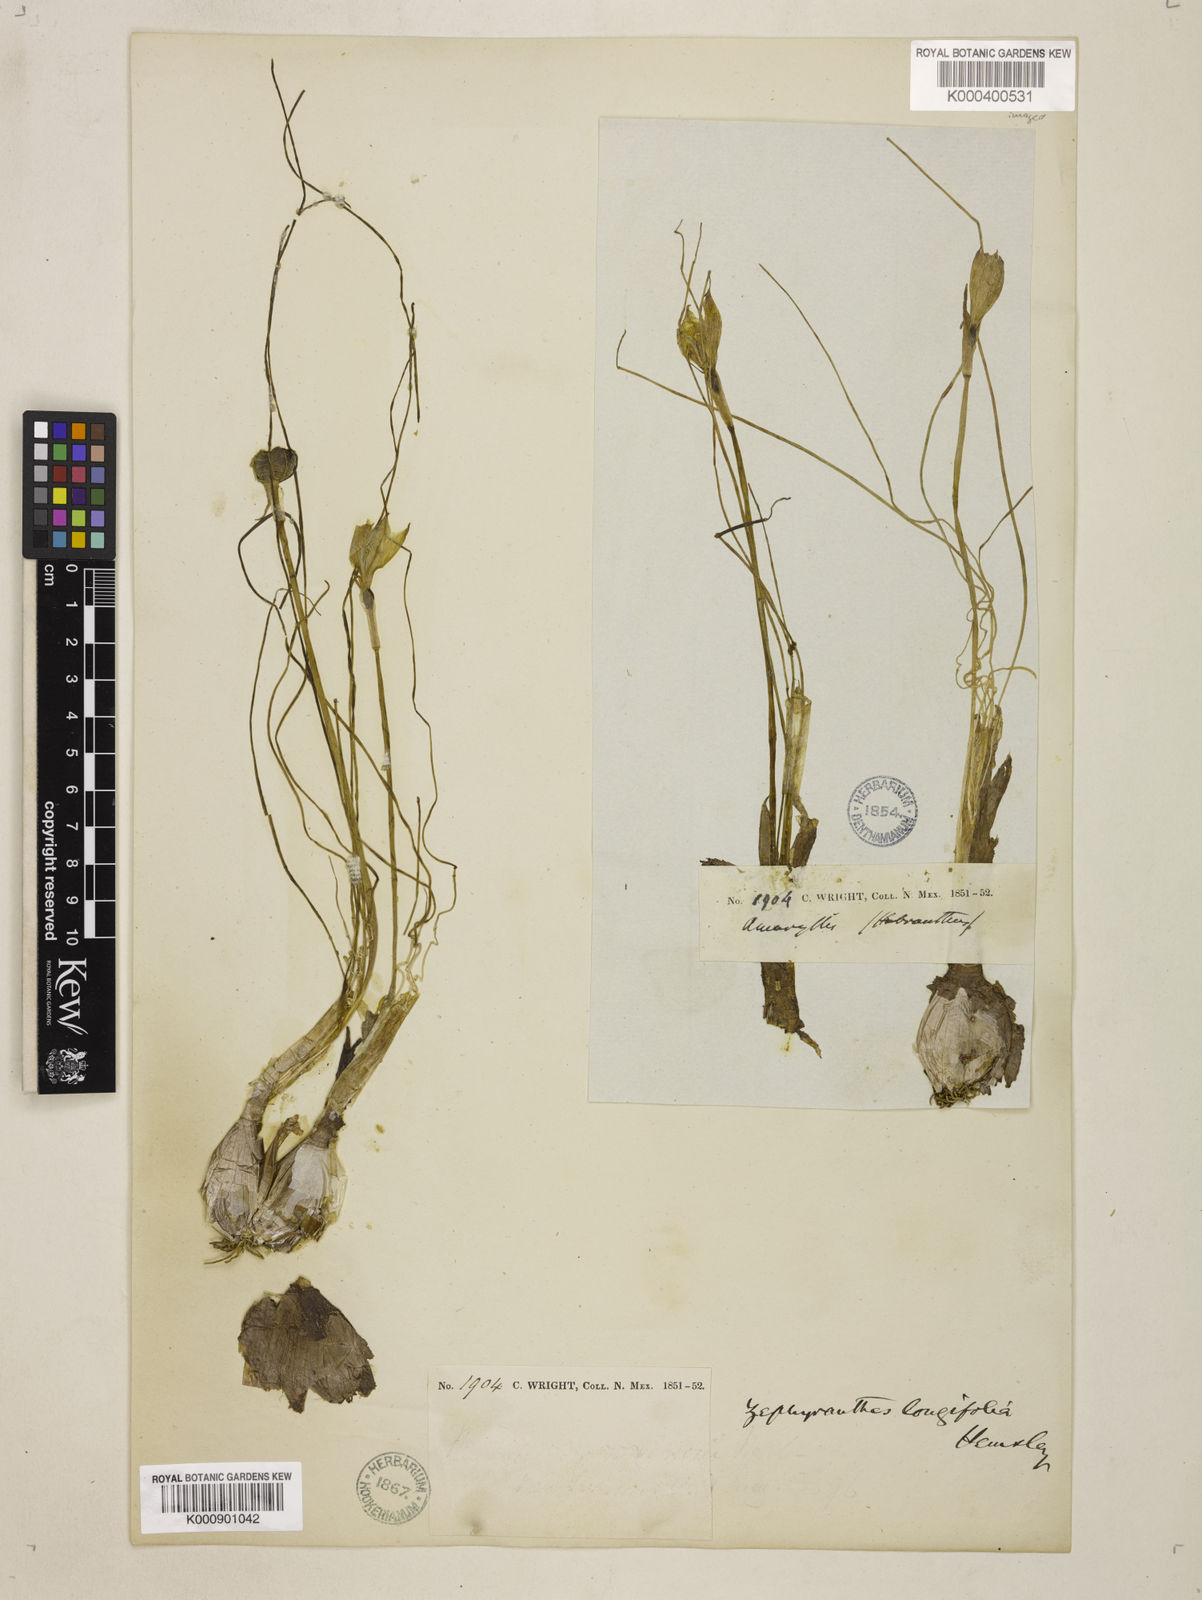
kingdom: Plantae
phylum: Tracheophyta
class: Liliopsida
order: Asparagales
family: Amaryllidaceae
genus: Zephyranthes
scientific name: Zephyranthes longifolia
